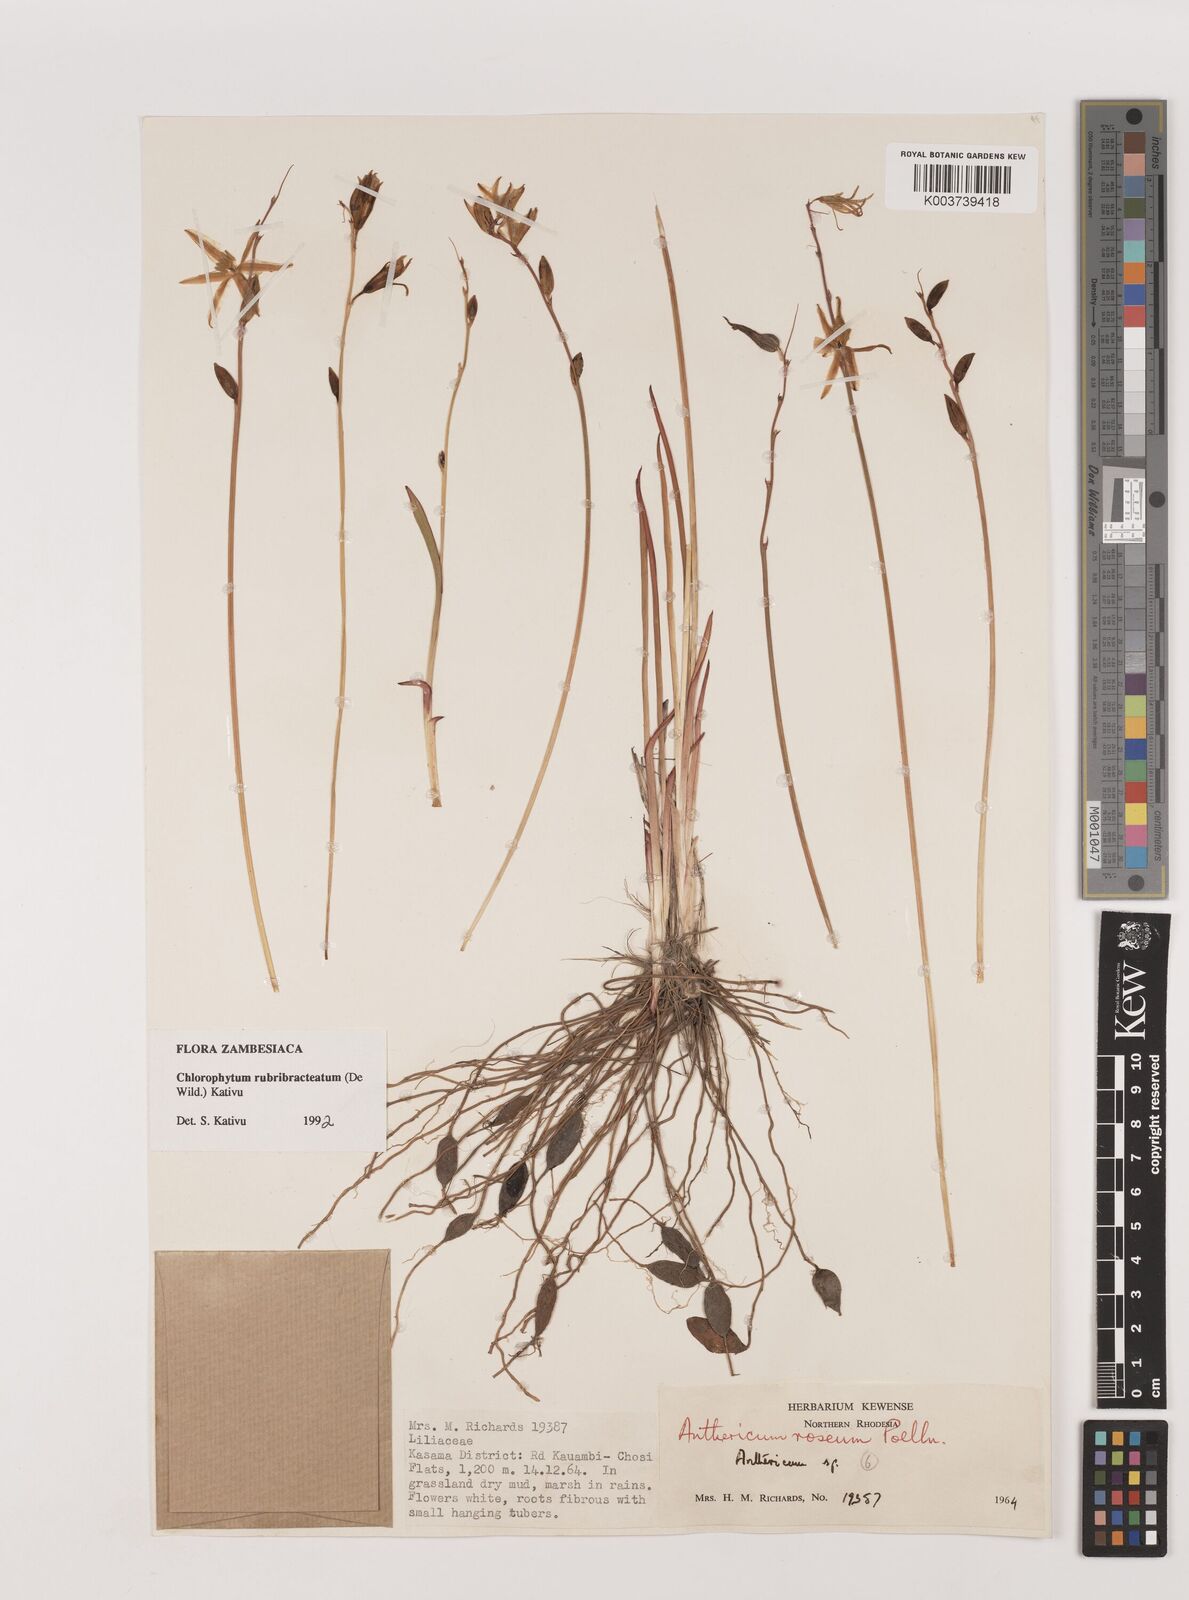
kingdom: Plantae
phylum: Tracheophyta
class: Liliopsida
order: Asparagales
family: Asparagaceae
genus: Chlorophytum
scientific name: Chlorophytum rubribracteatum
